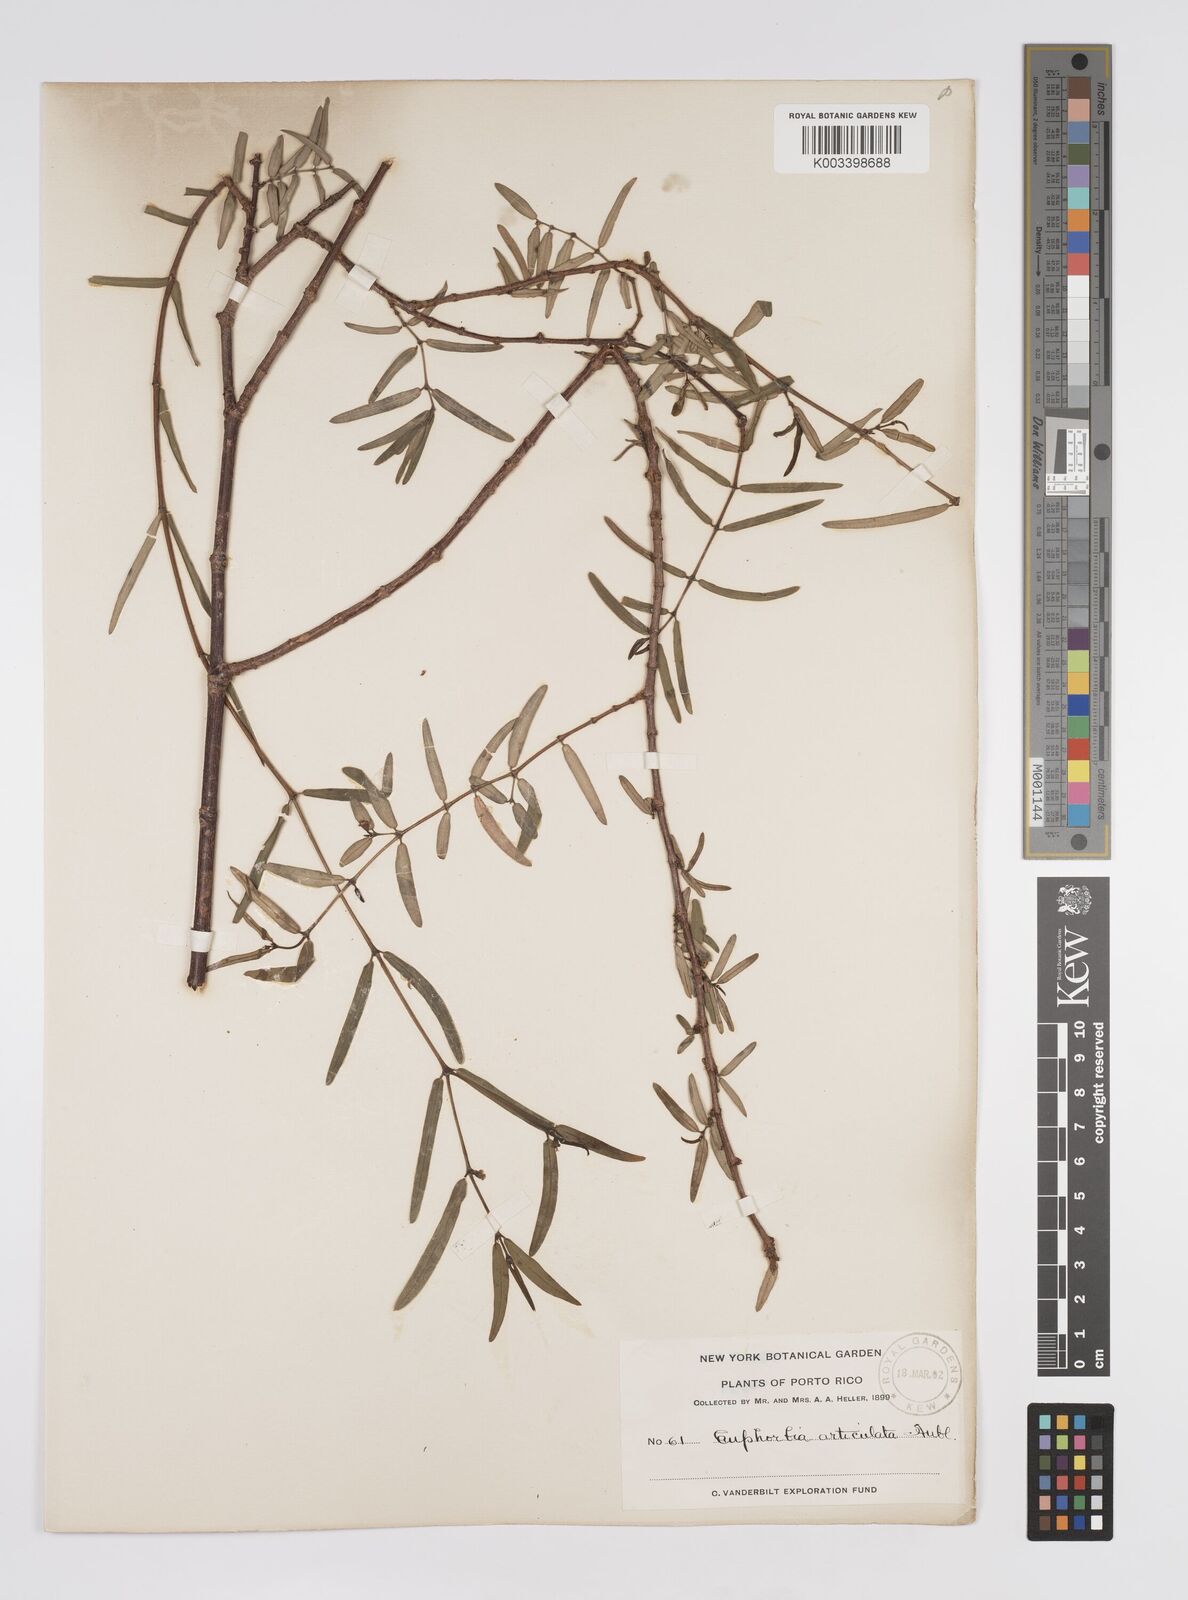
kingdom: Plantae
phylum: Tracheophyta
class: Magnoliopsida
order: Malpighiales
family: Euphorbiaceae
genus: Euphorbia
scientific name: Euphorbia articulata
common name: Jointed sandmat
